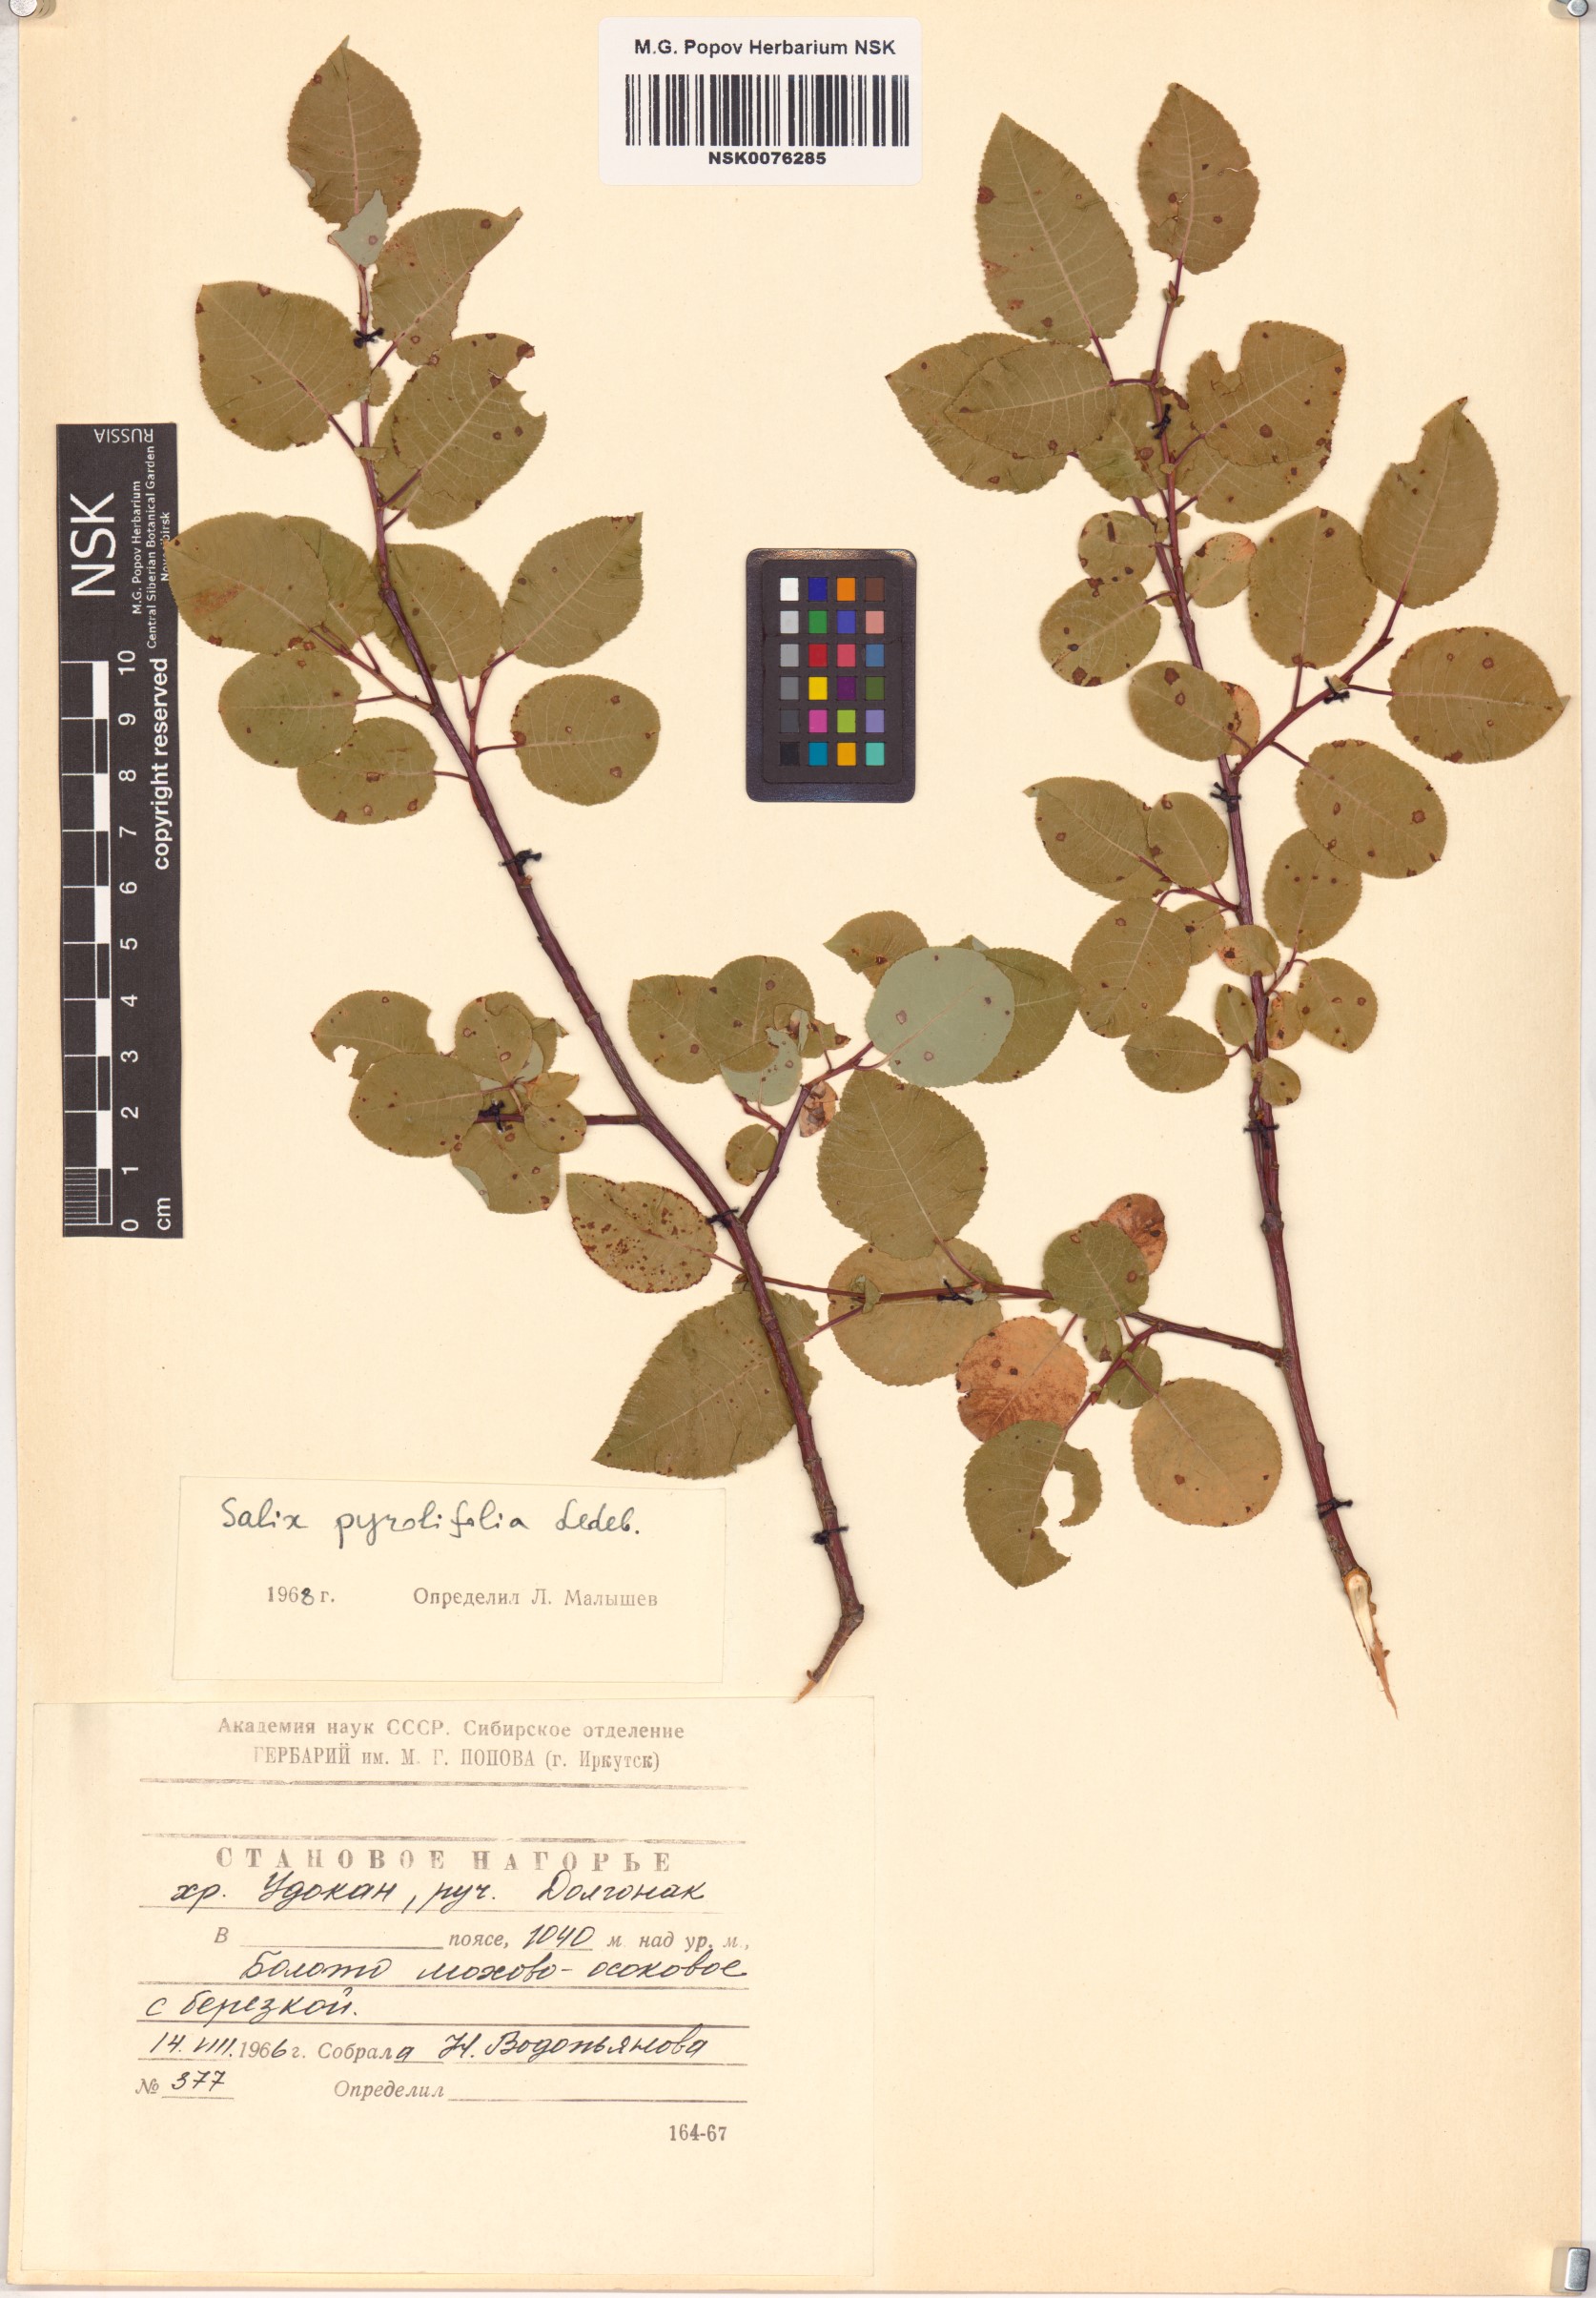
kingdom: Plantae
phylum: Tracheophyta
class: Magnoliopsida
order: Malpighiales
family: Salicaceae
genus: Salix
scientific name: Salix pyrolifolia
